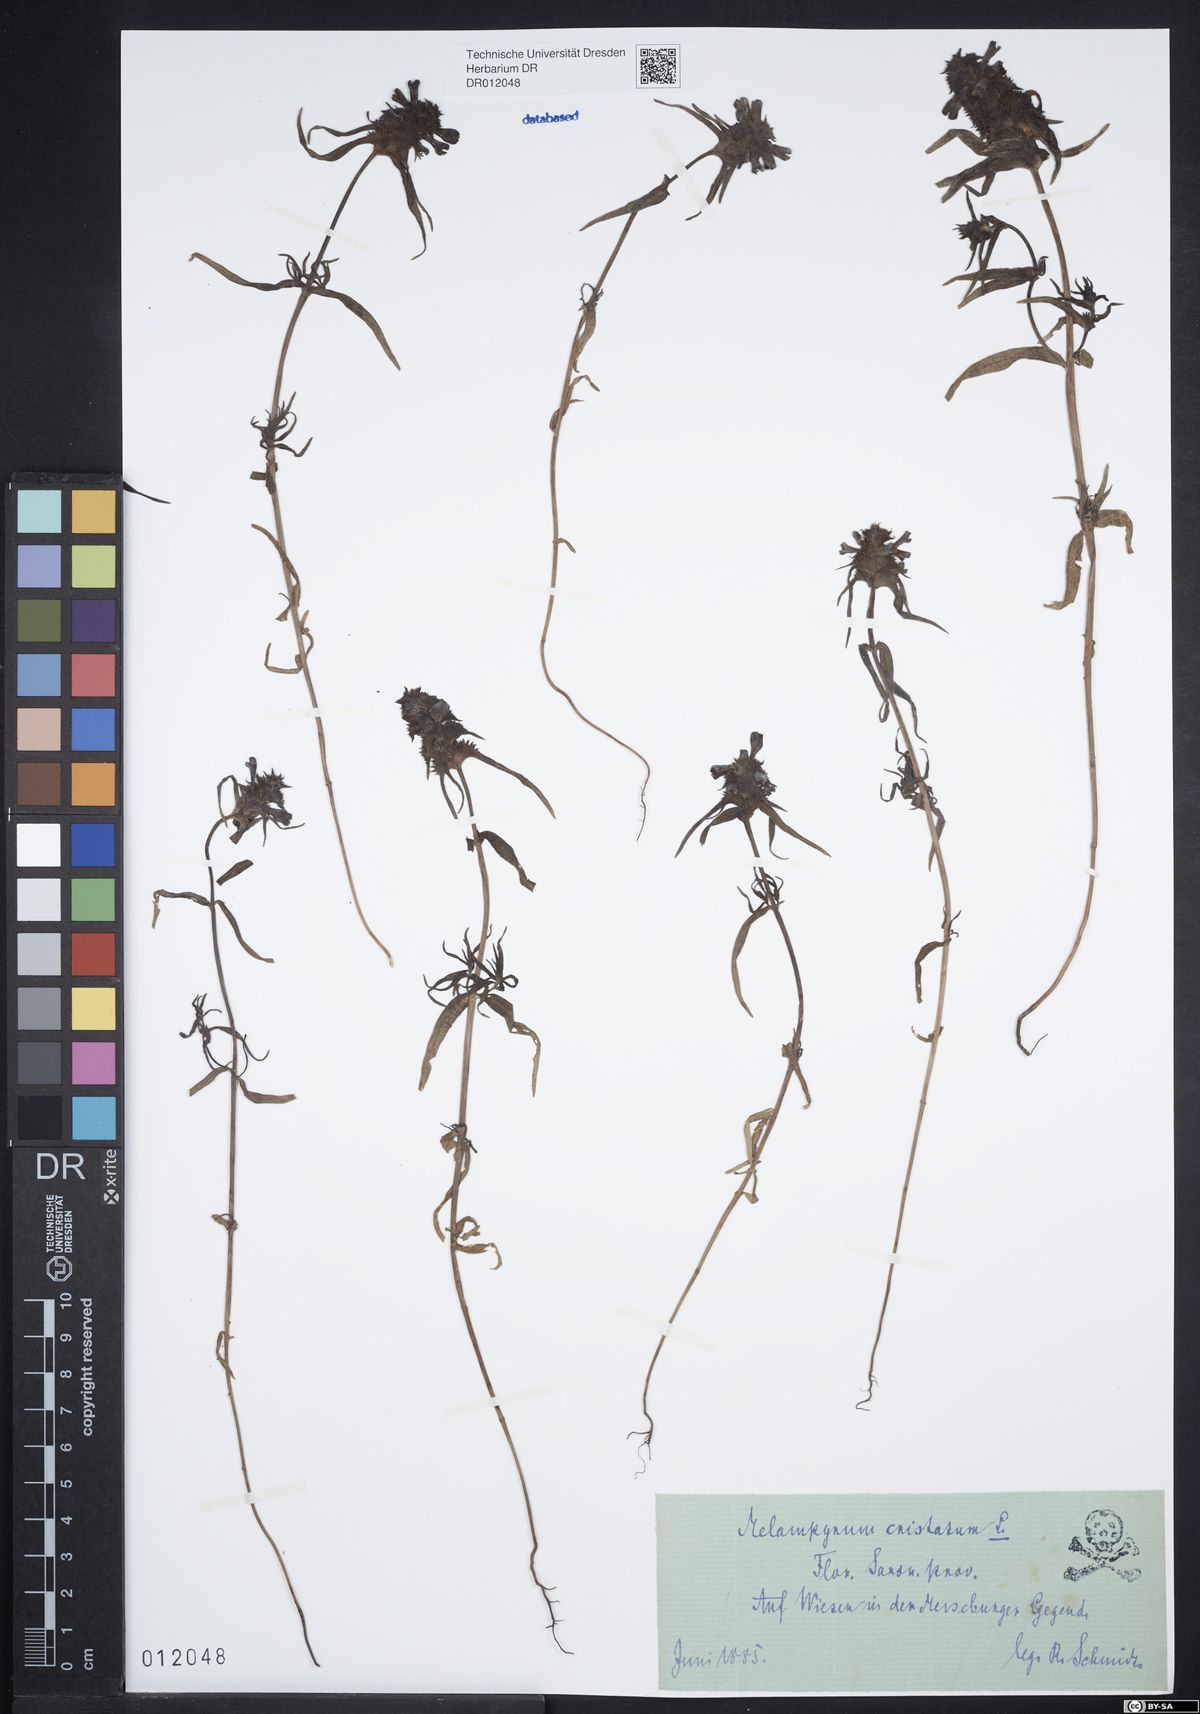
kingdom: Plantae
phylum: Tracheophyta
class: Magnoliopsida
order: Lamiales
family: Orobanchaceae
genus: Melampyrum
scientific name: Melampyrum cristatum
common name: Crested cow-wheat
